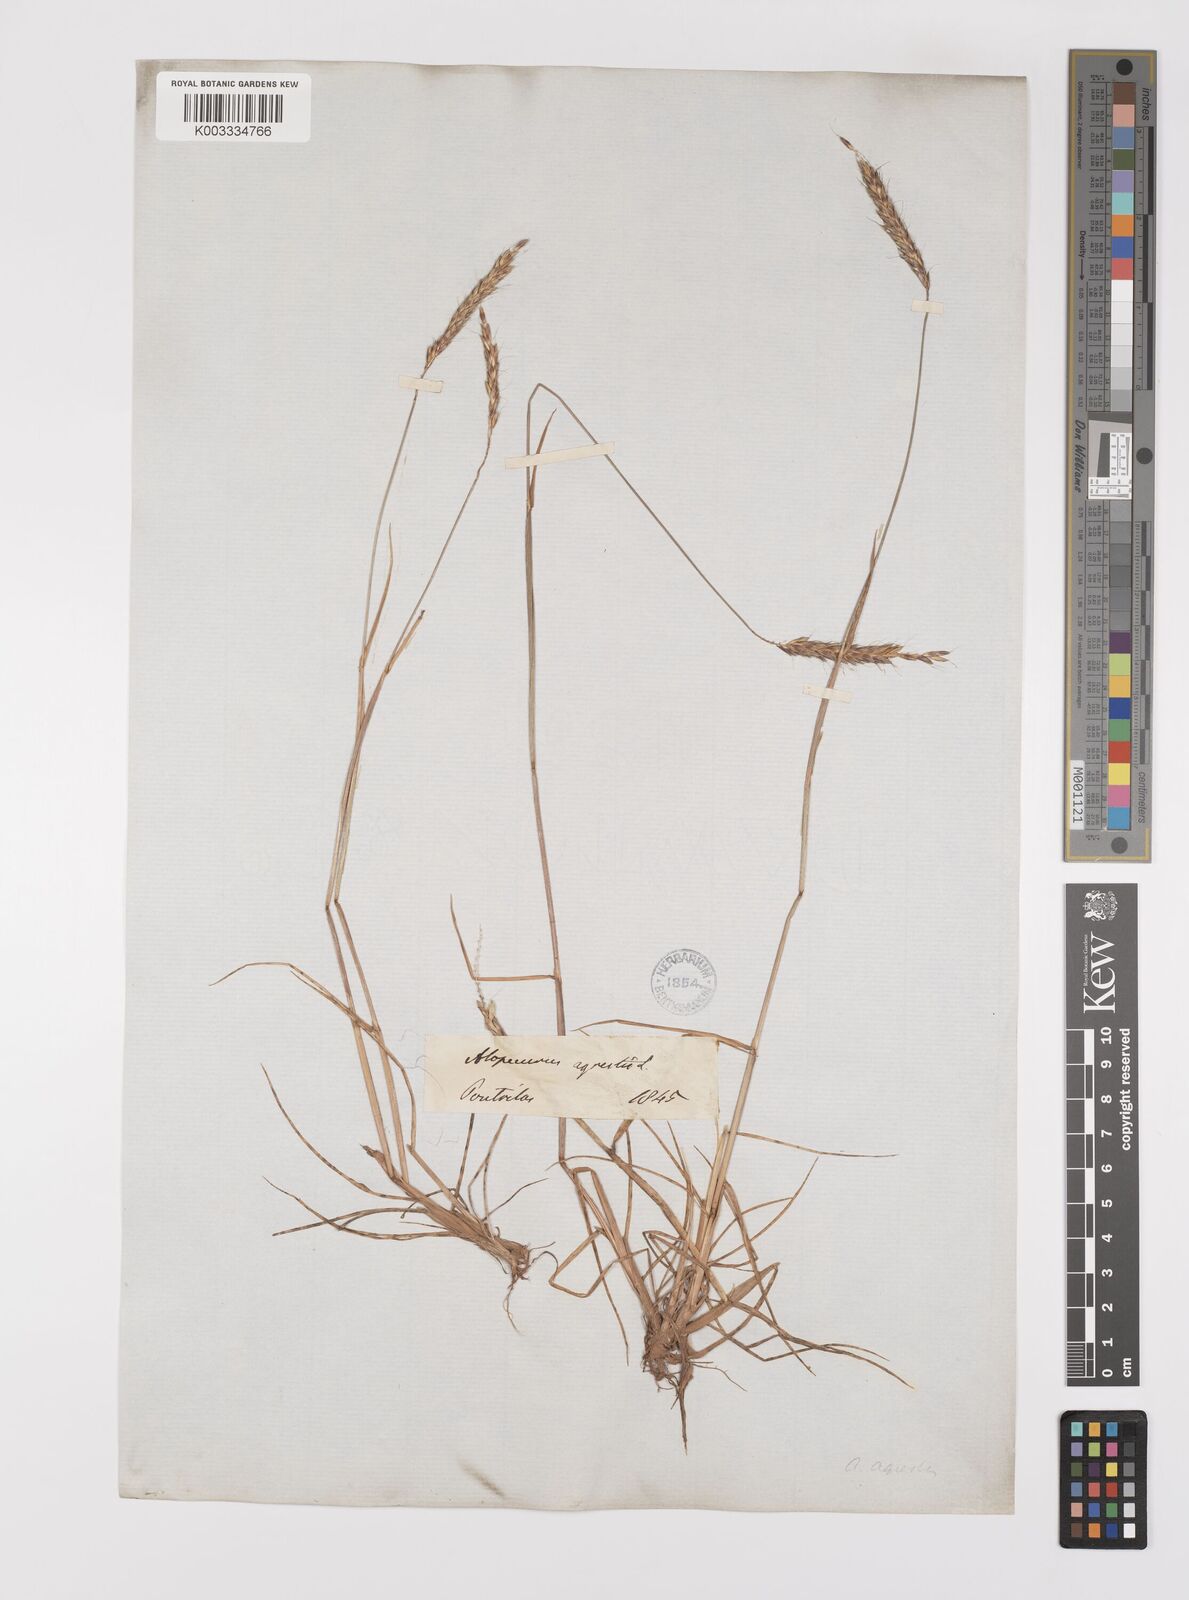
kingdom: Plantae
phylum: Tracheophyta
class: Liliopsida
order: Poales
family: Poaceae
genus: Alopecurus
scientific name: Alopecurus myosuroides
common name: Black-grass
